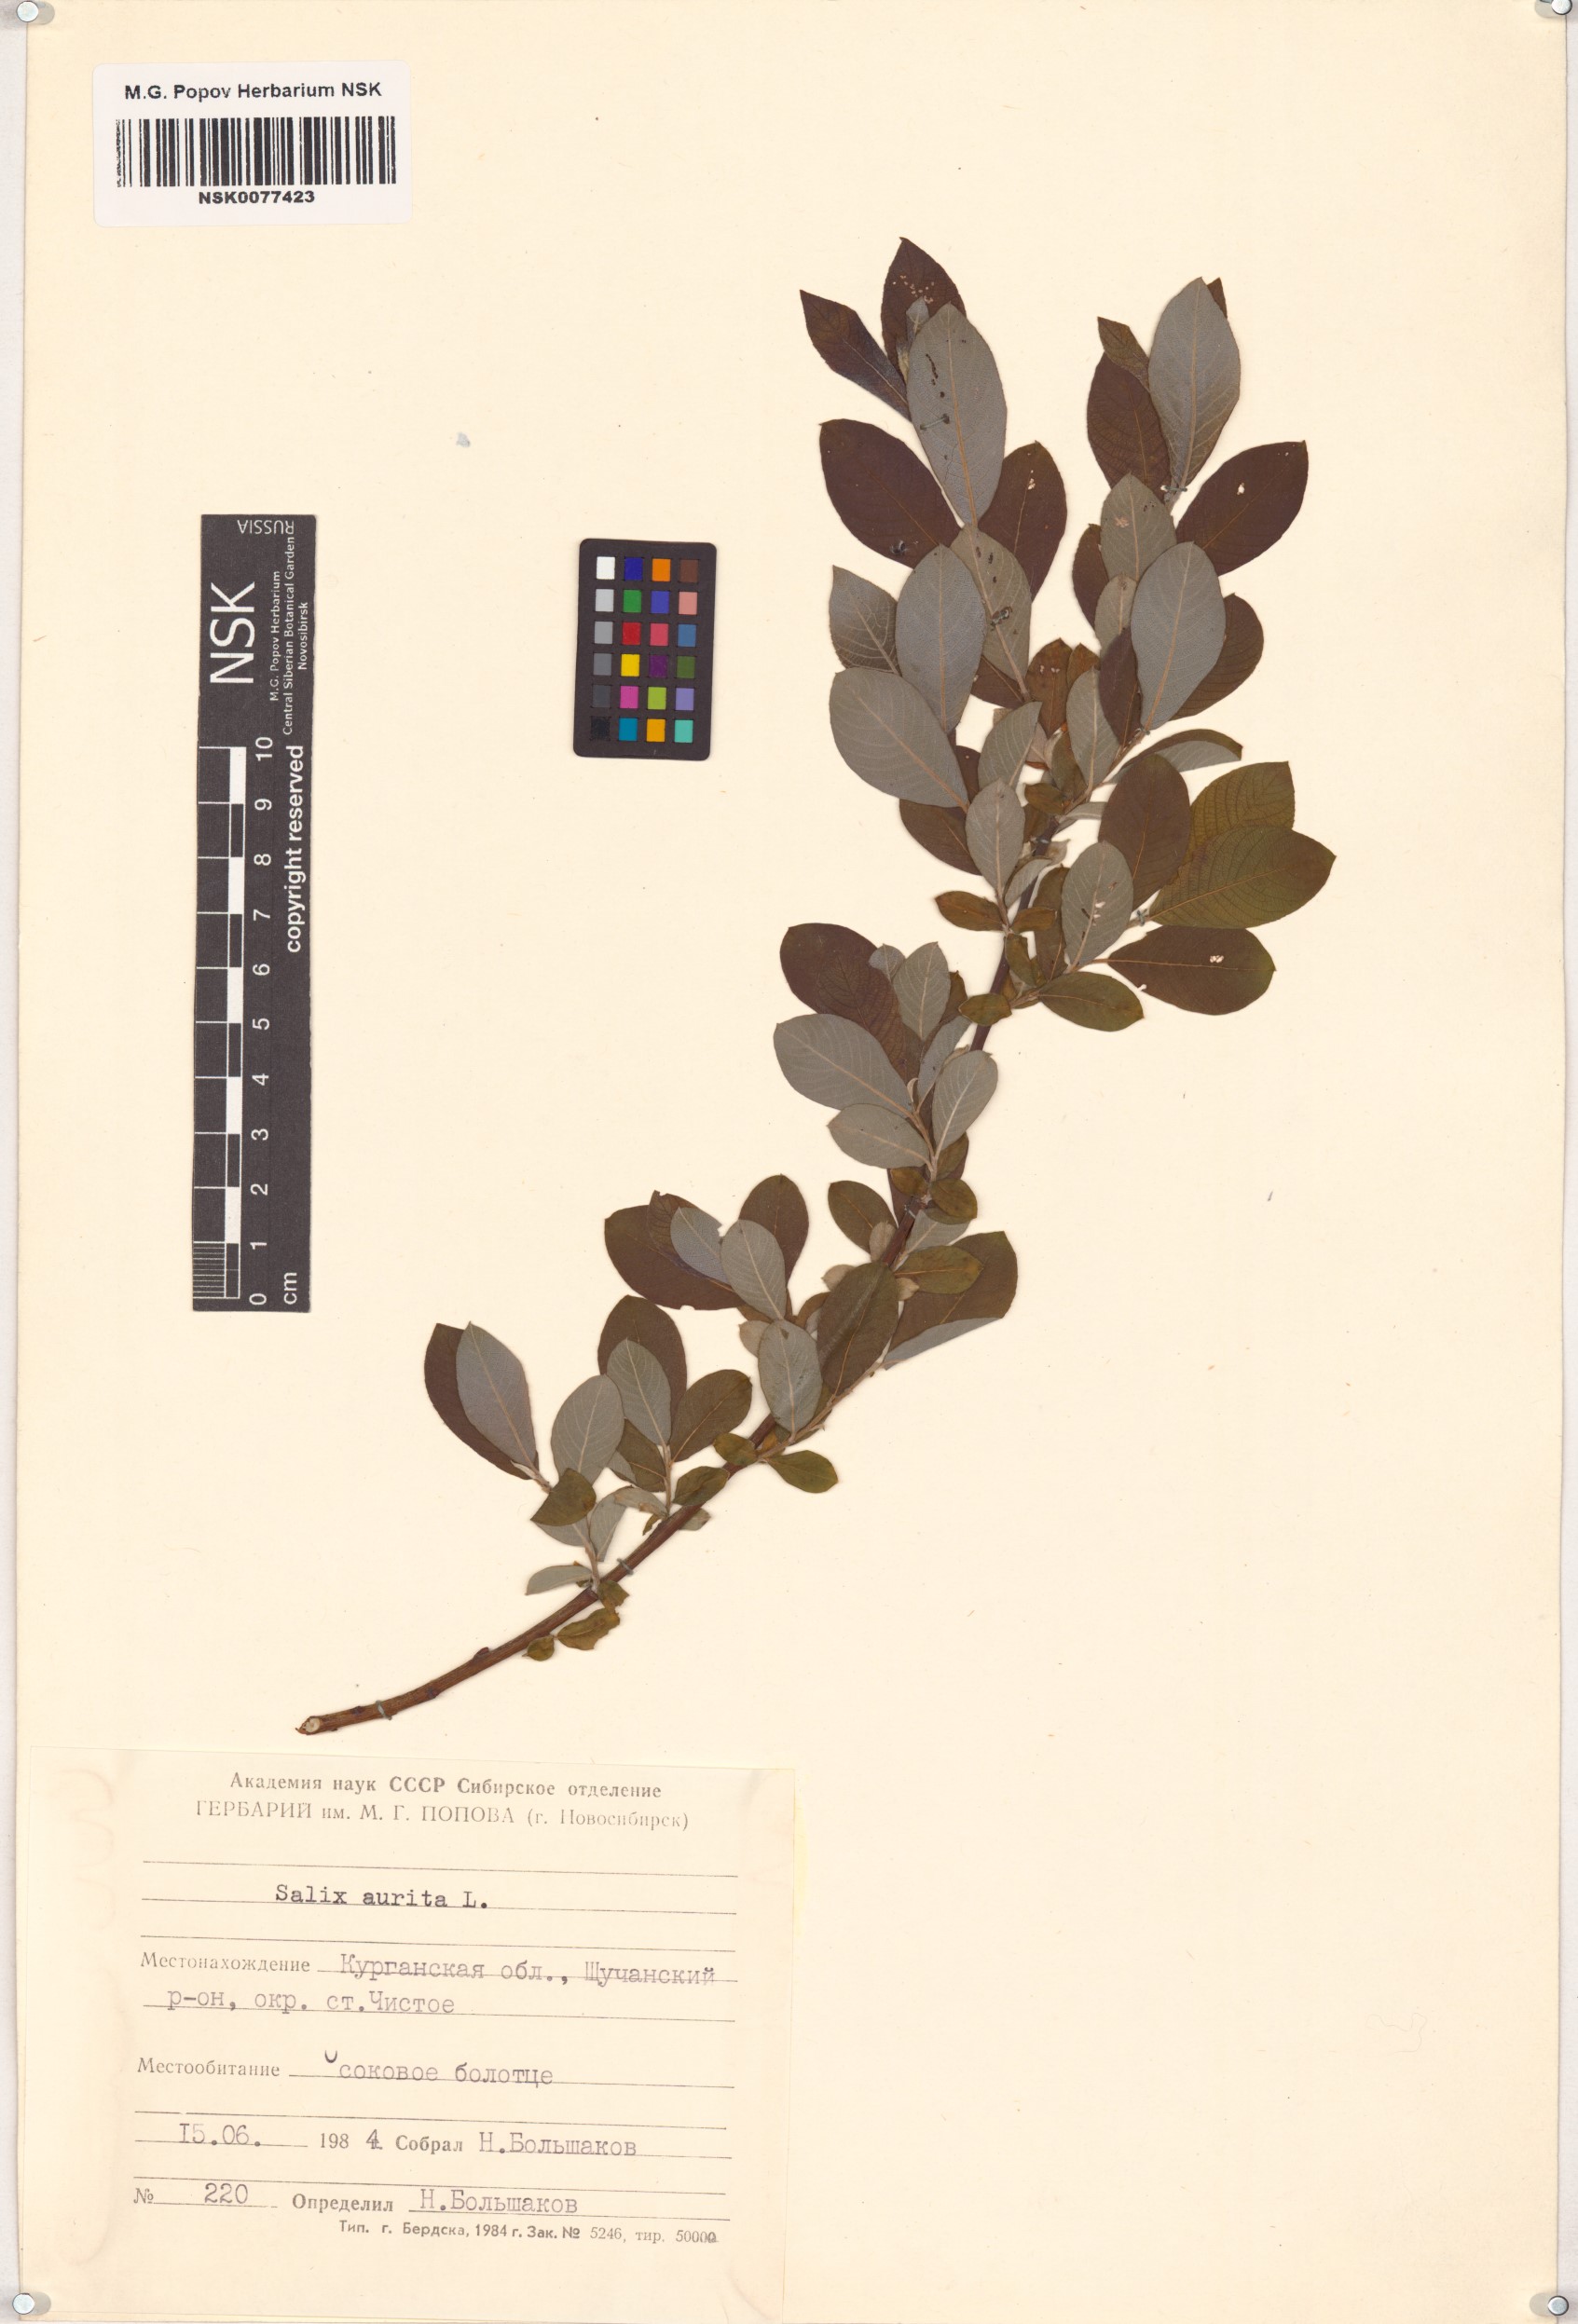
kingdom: Plantae
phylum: Tracheophyta
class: Magnoliopsida
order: Malpighiales
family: Salicaceae
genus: Salix
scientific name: Salix aurita
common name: Eared willow
